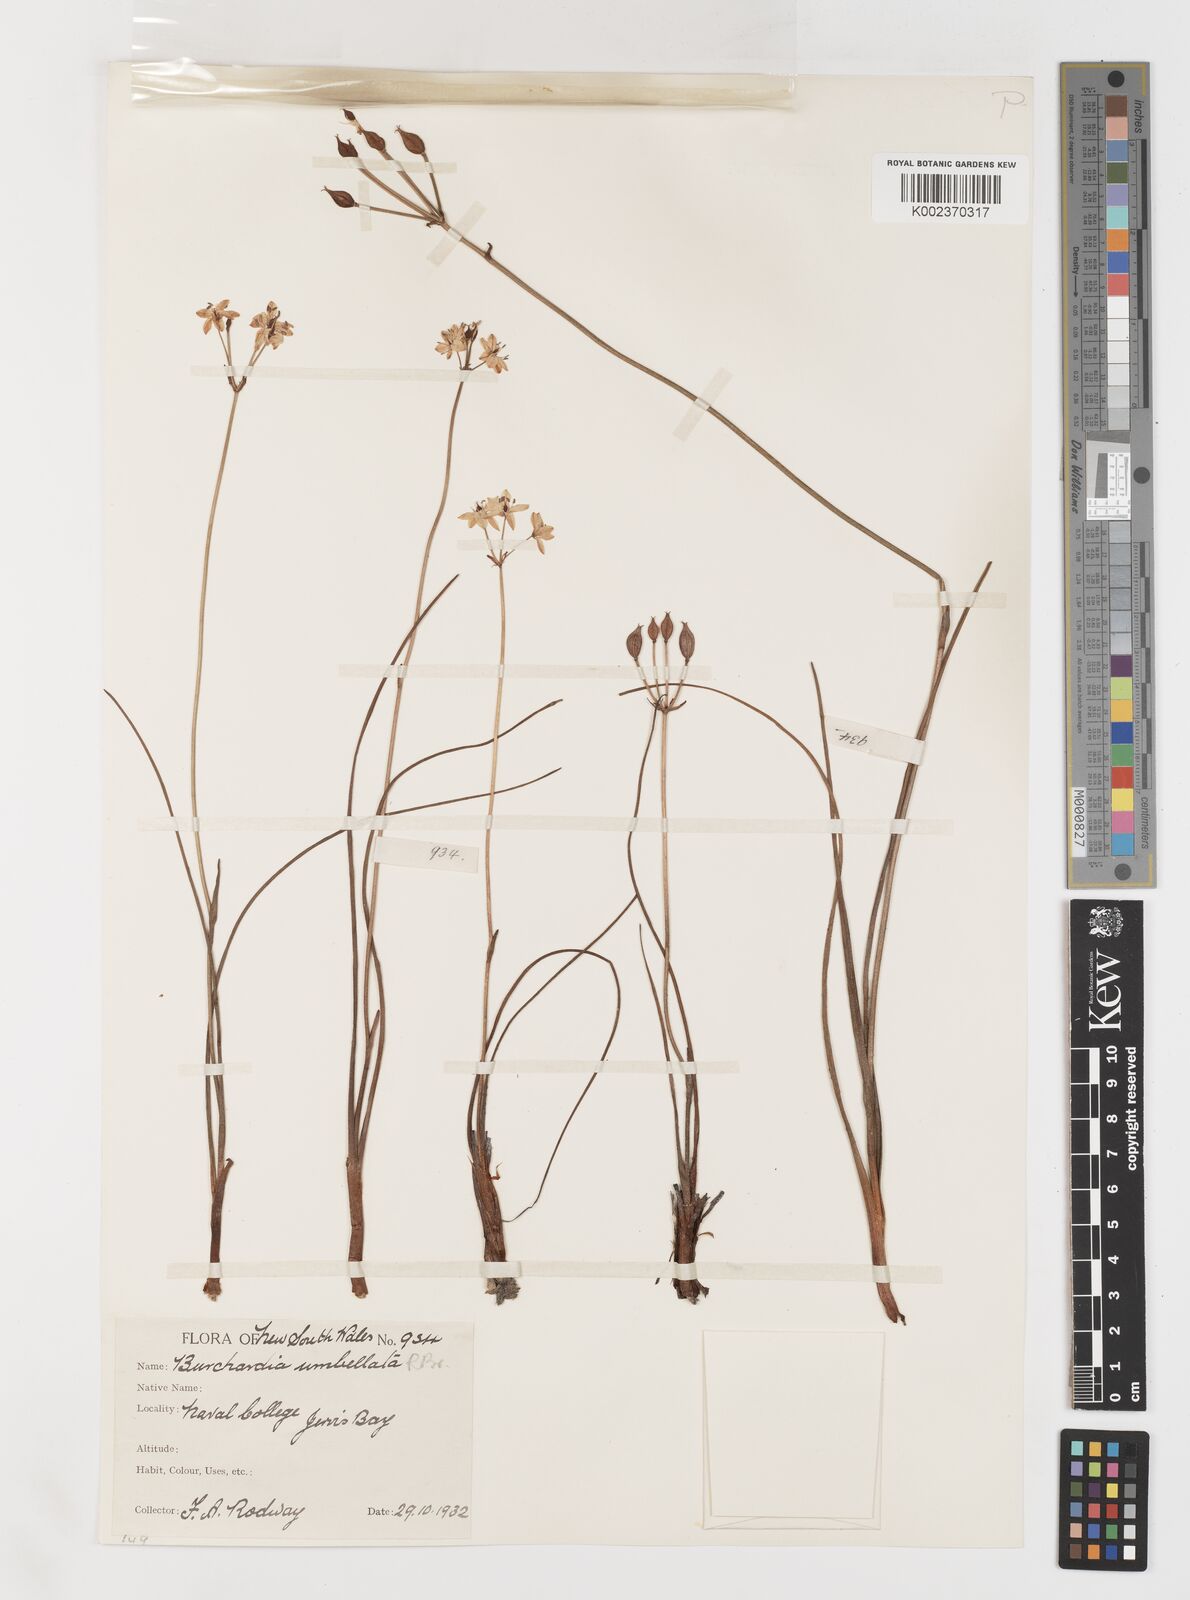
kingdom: Plantae
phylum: Tracheophyta
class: Liliopsida
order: Liliales
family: Colchicaceae
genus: Burchardia
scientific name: Burchardia umbellata
